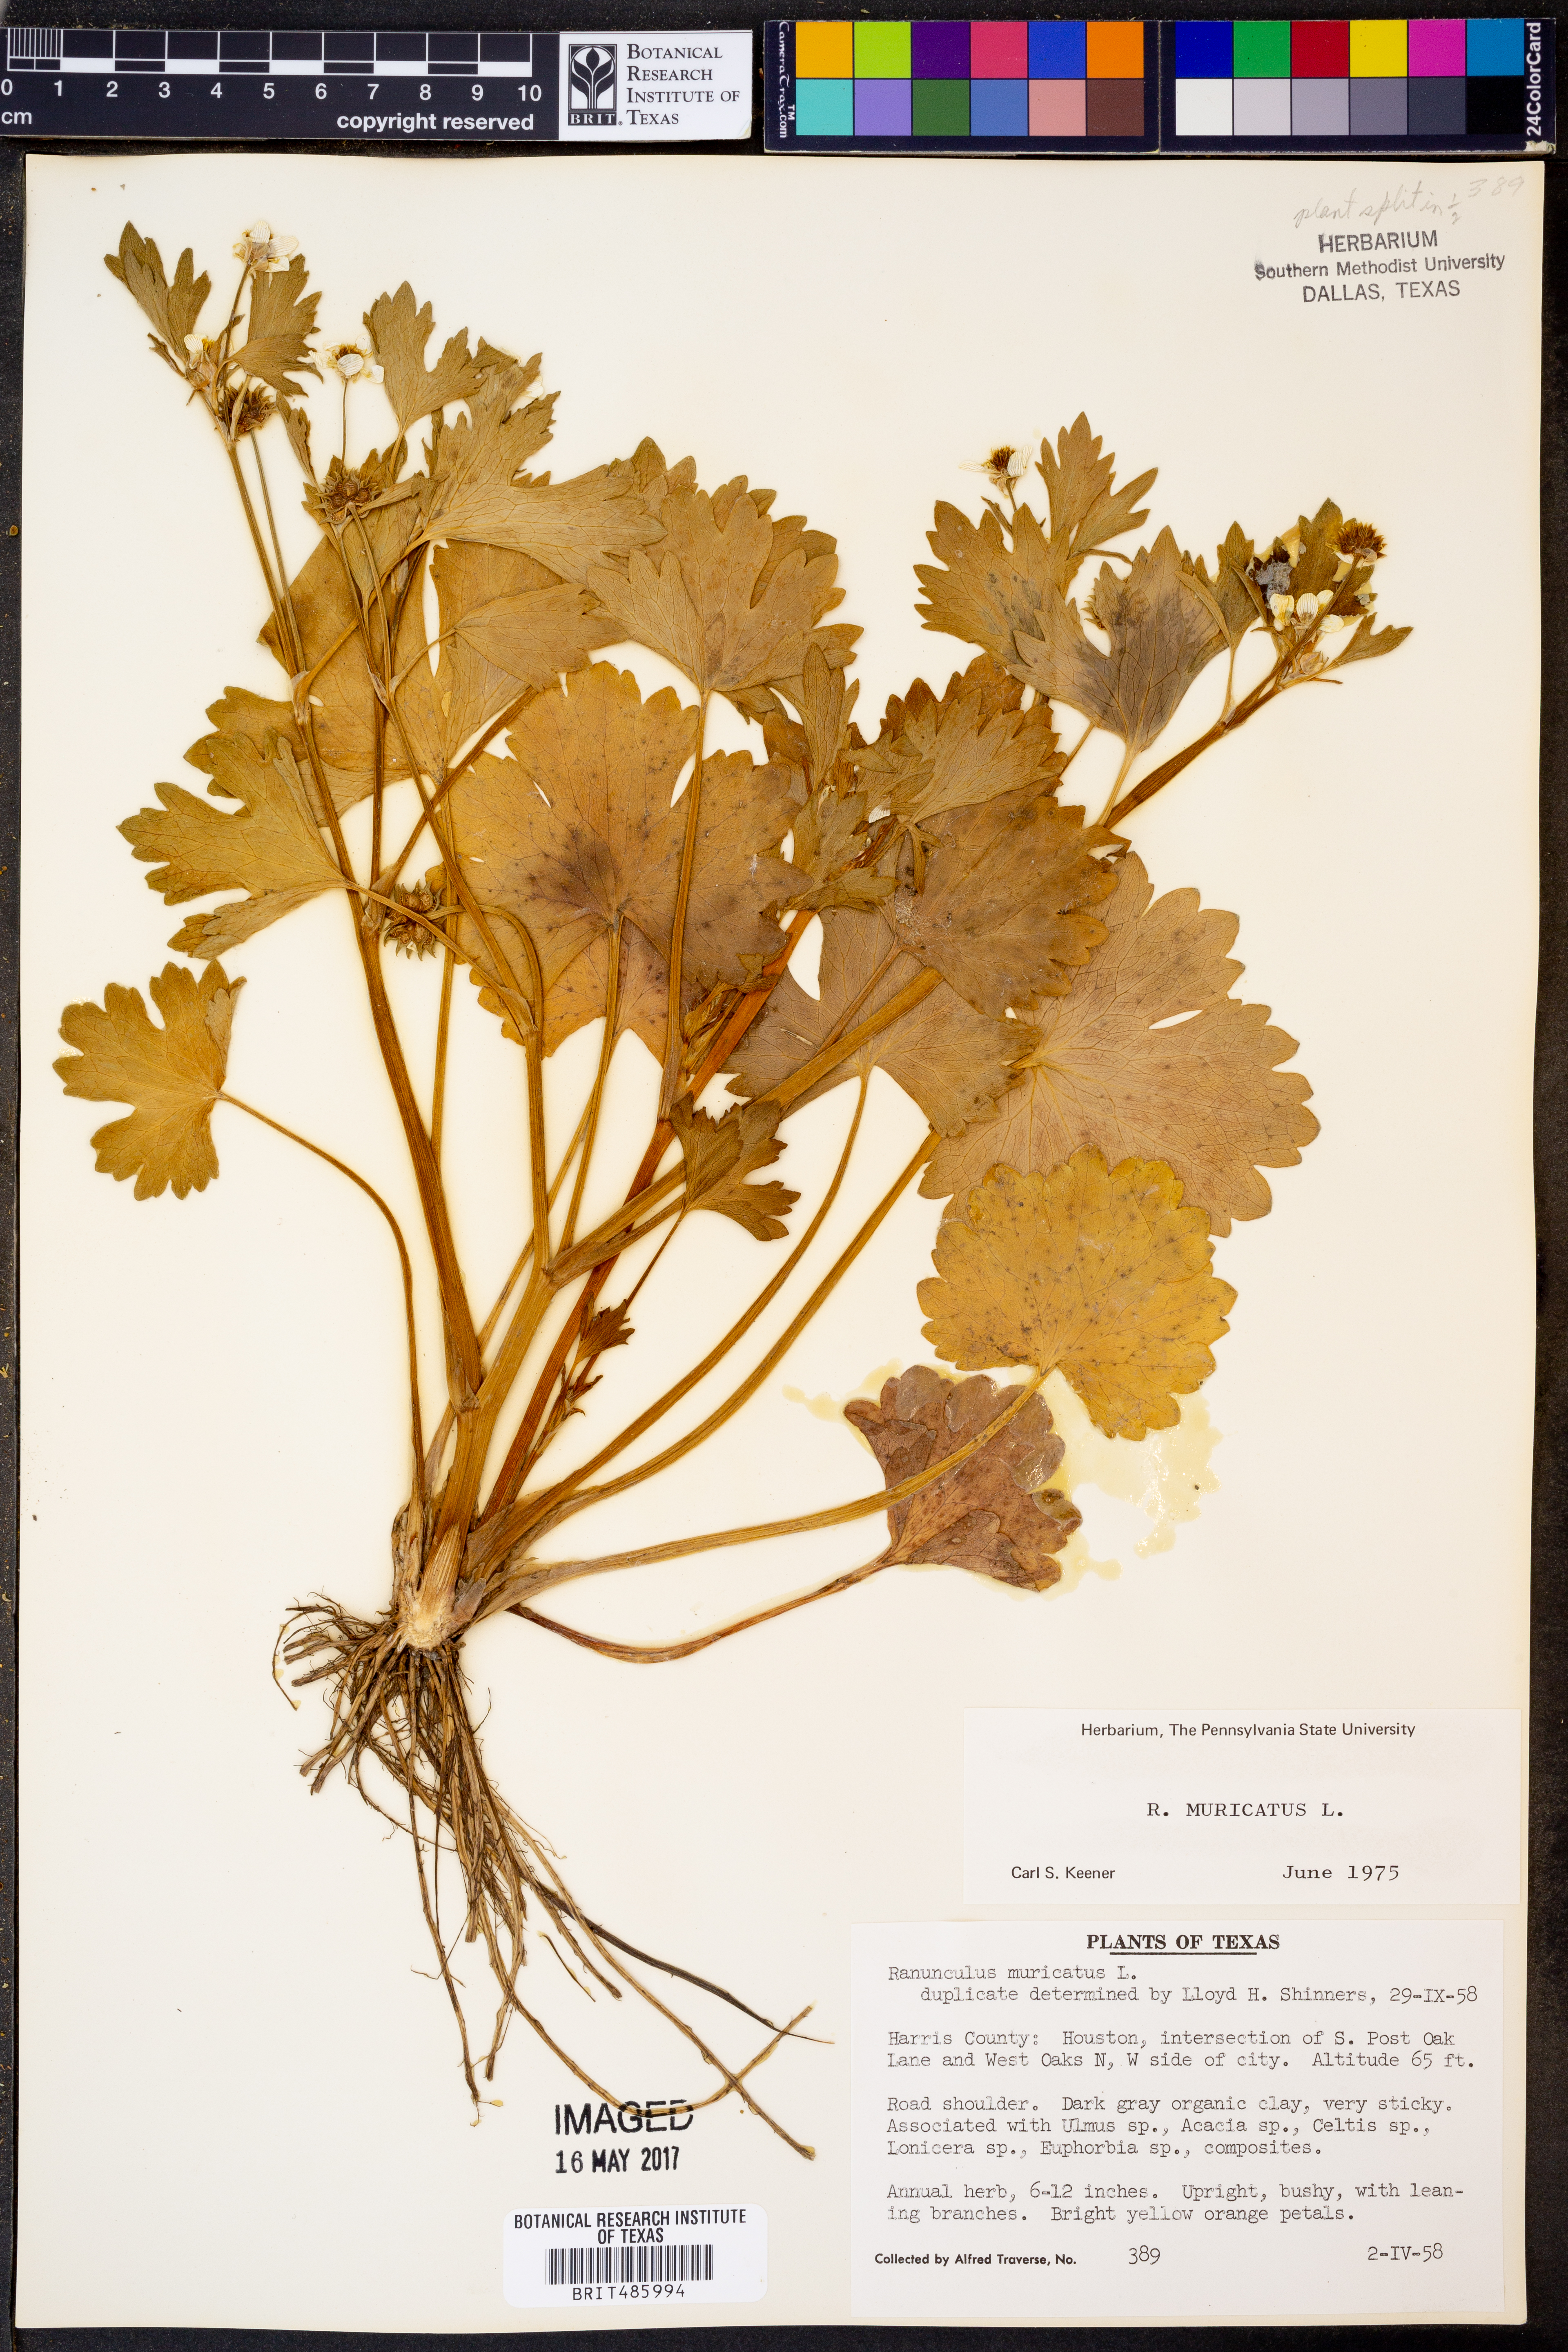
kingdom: Plantae
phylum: Tracheophyta
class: Magnoliopsida
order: Ranunculales
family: Ranunculaceae
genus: Ranunculus
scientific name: Ranunculus muricatus
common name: Rough-fruited buttercup
